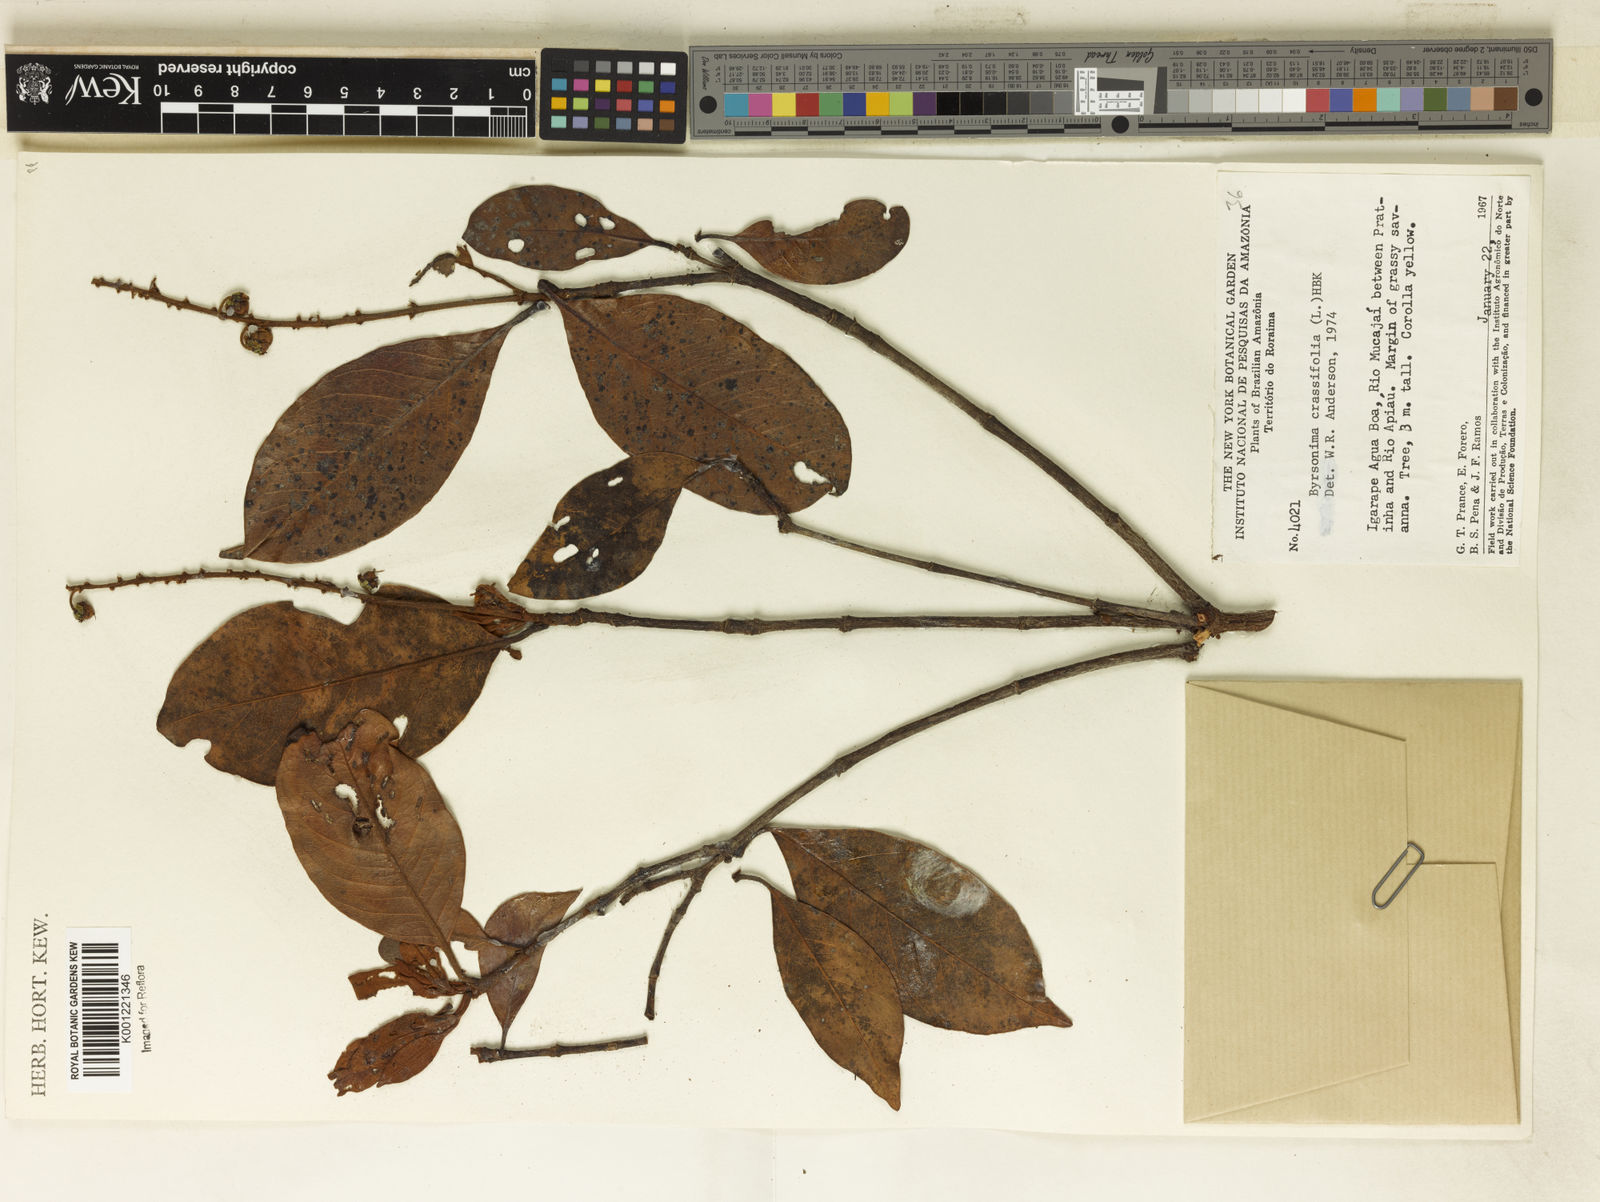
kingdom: Plantae
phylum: Tracheophyta
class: Magnoliopsida
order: Malpighiales
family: Malpighiaceae
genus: Byrsonima
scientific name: Byrsonima crassifolia
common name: Golden spoon
